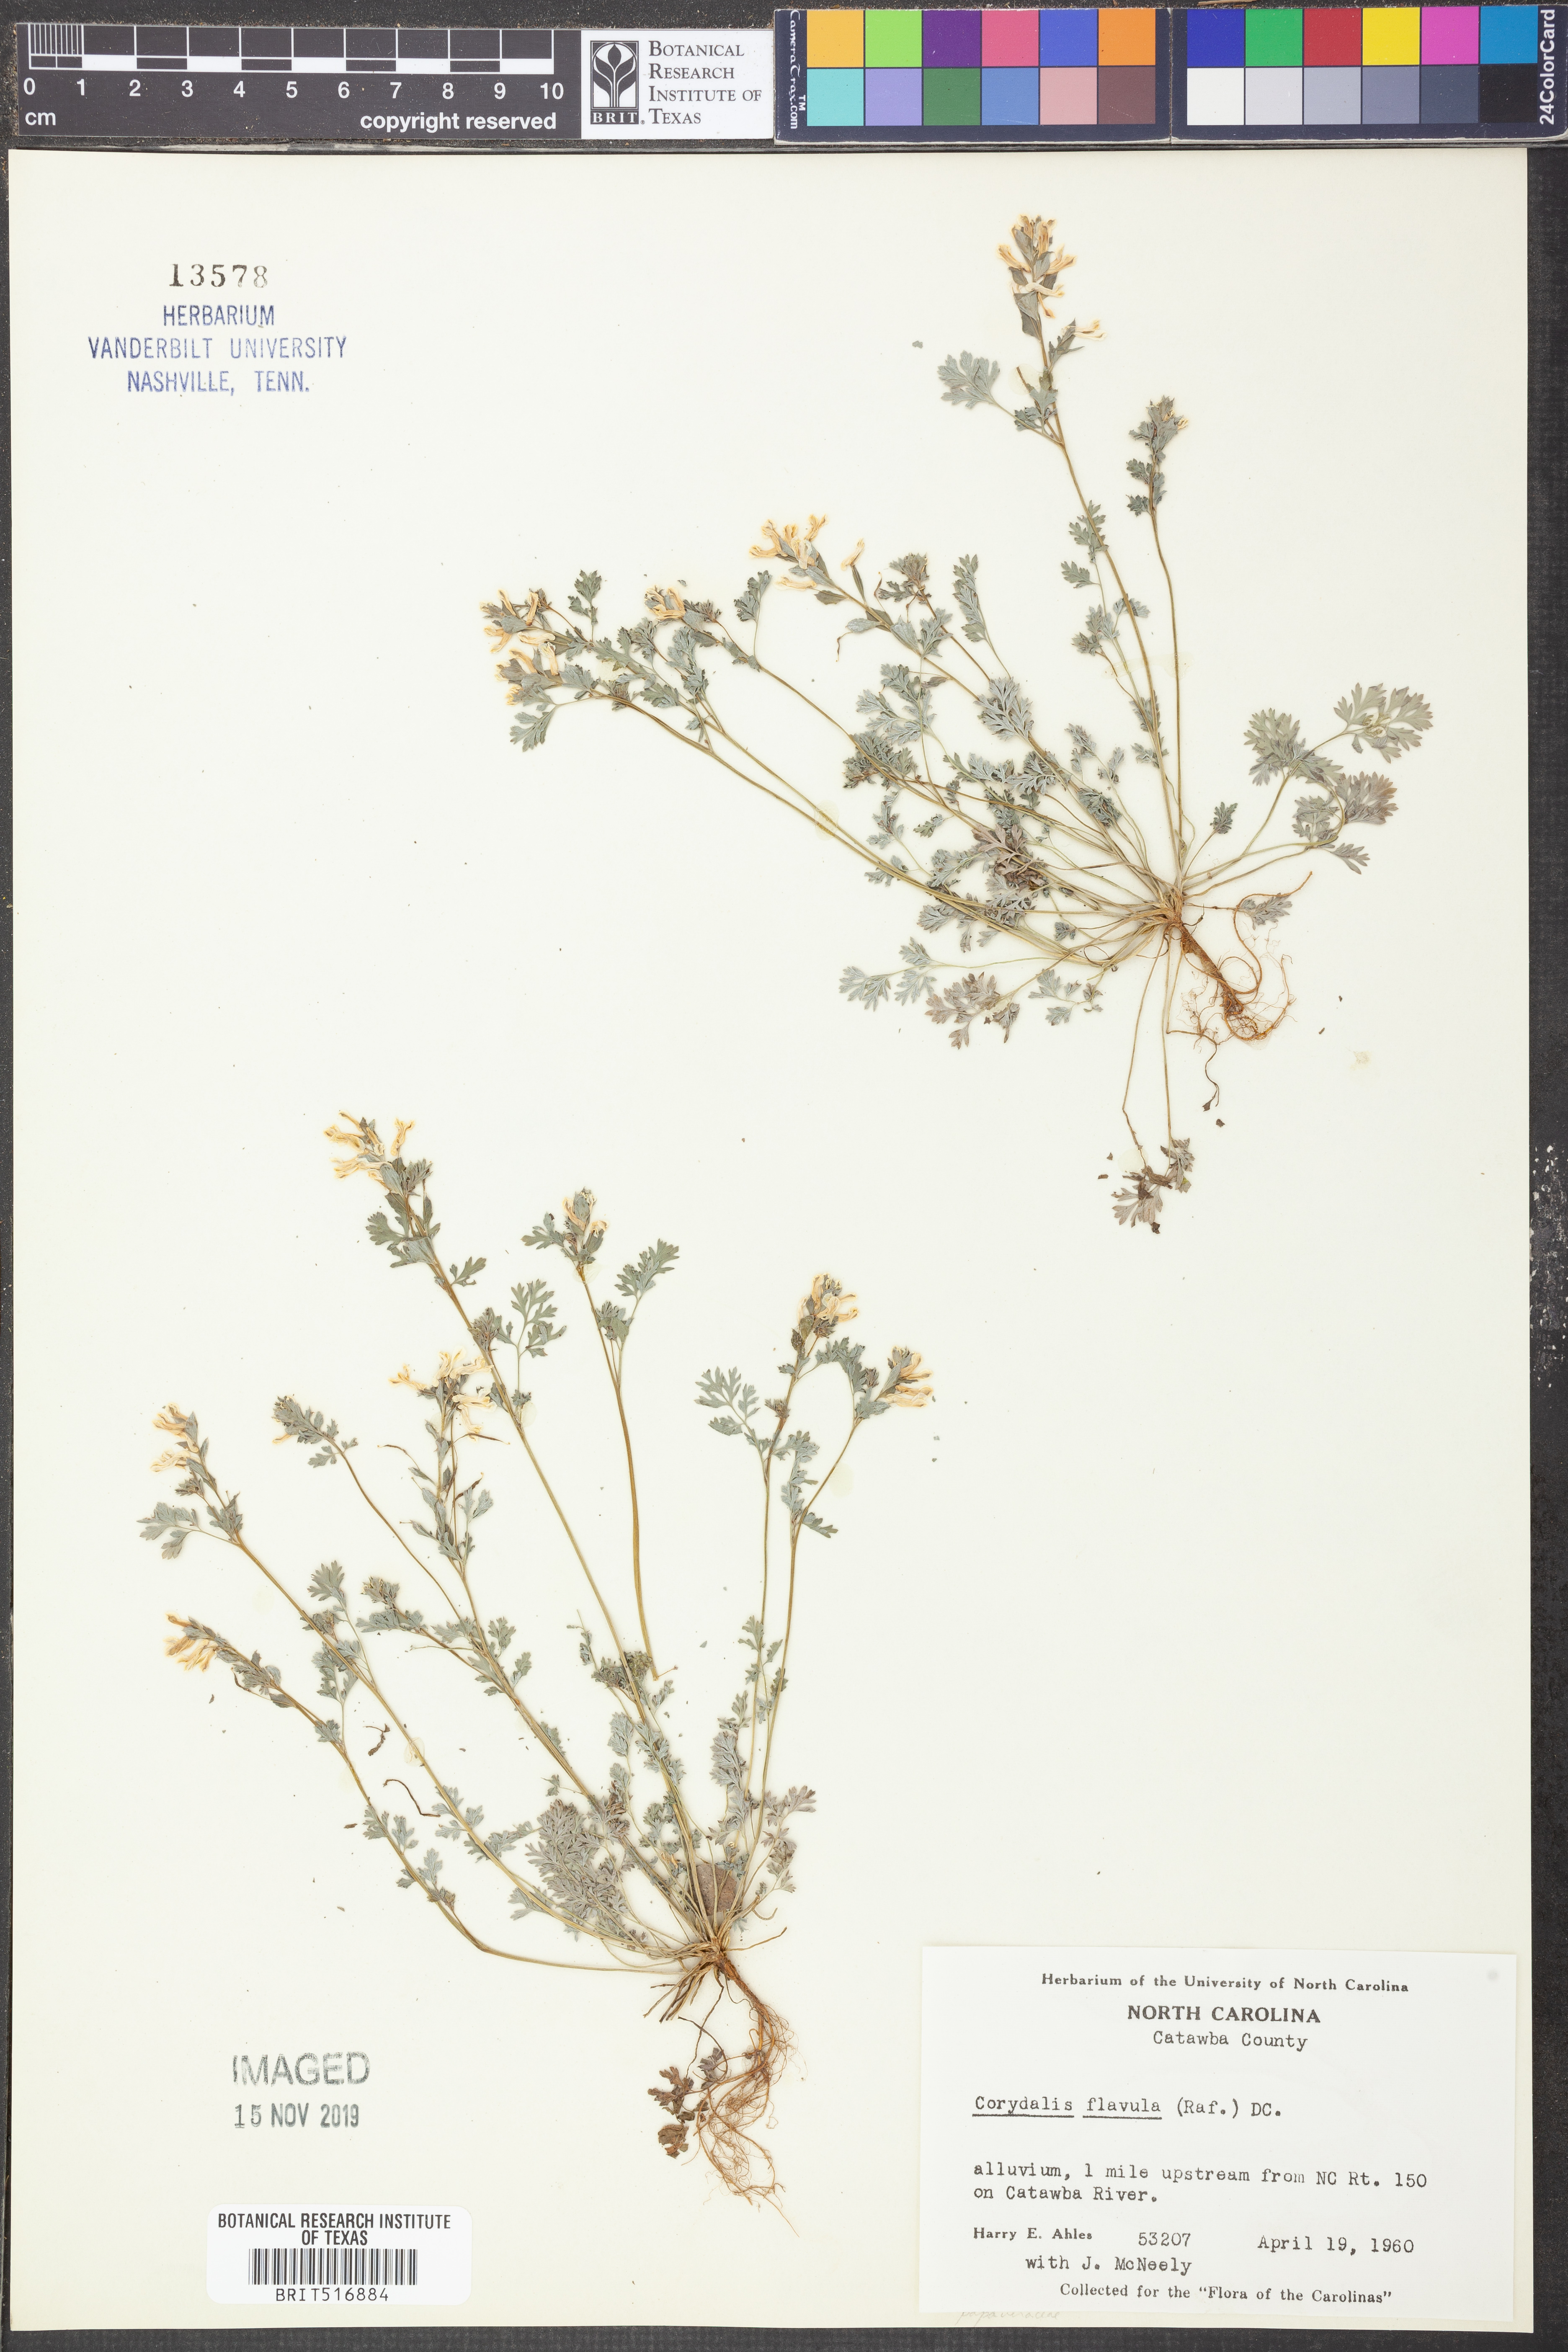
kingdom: Plantae
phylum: Tracheophyta
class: Magnoliopsida
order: Ranunculales
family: Papaveraceae
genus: Corydalis
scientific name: Corydalis flavula
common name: Yellow corydalis
